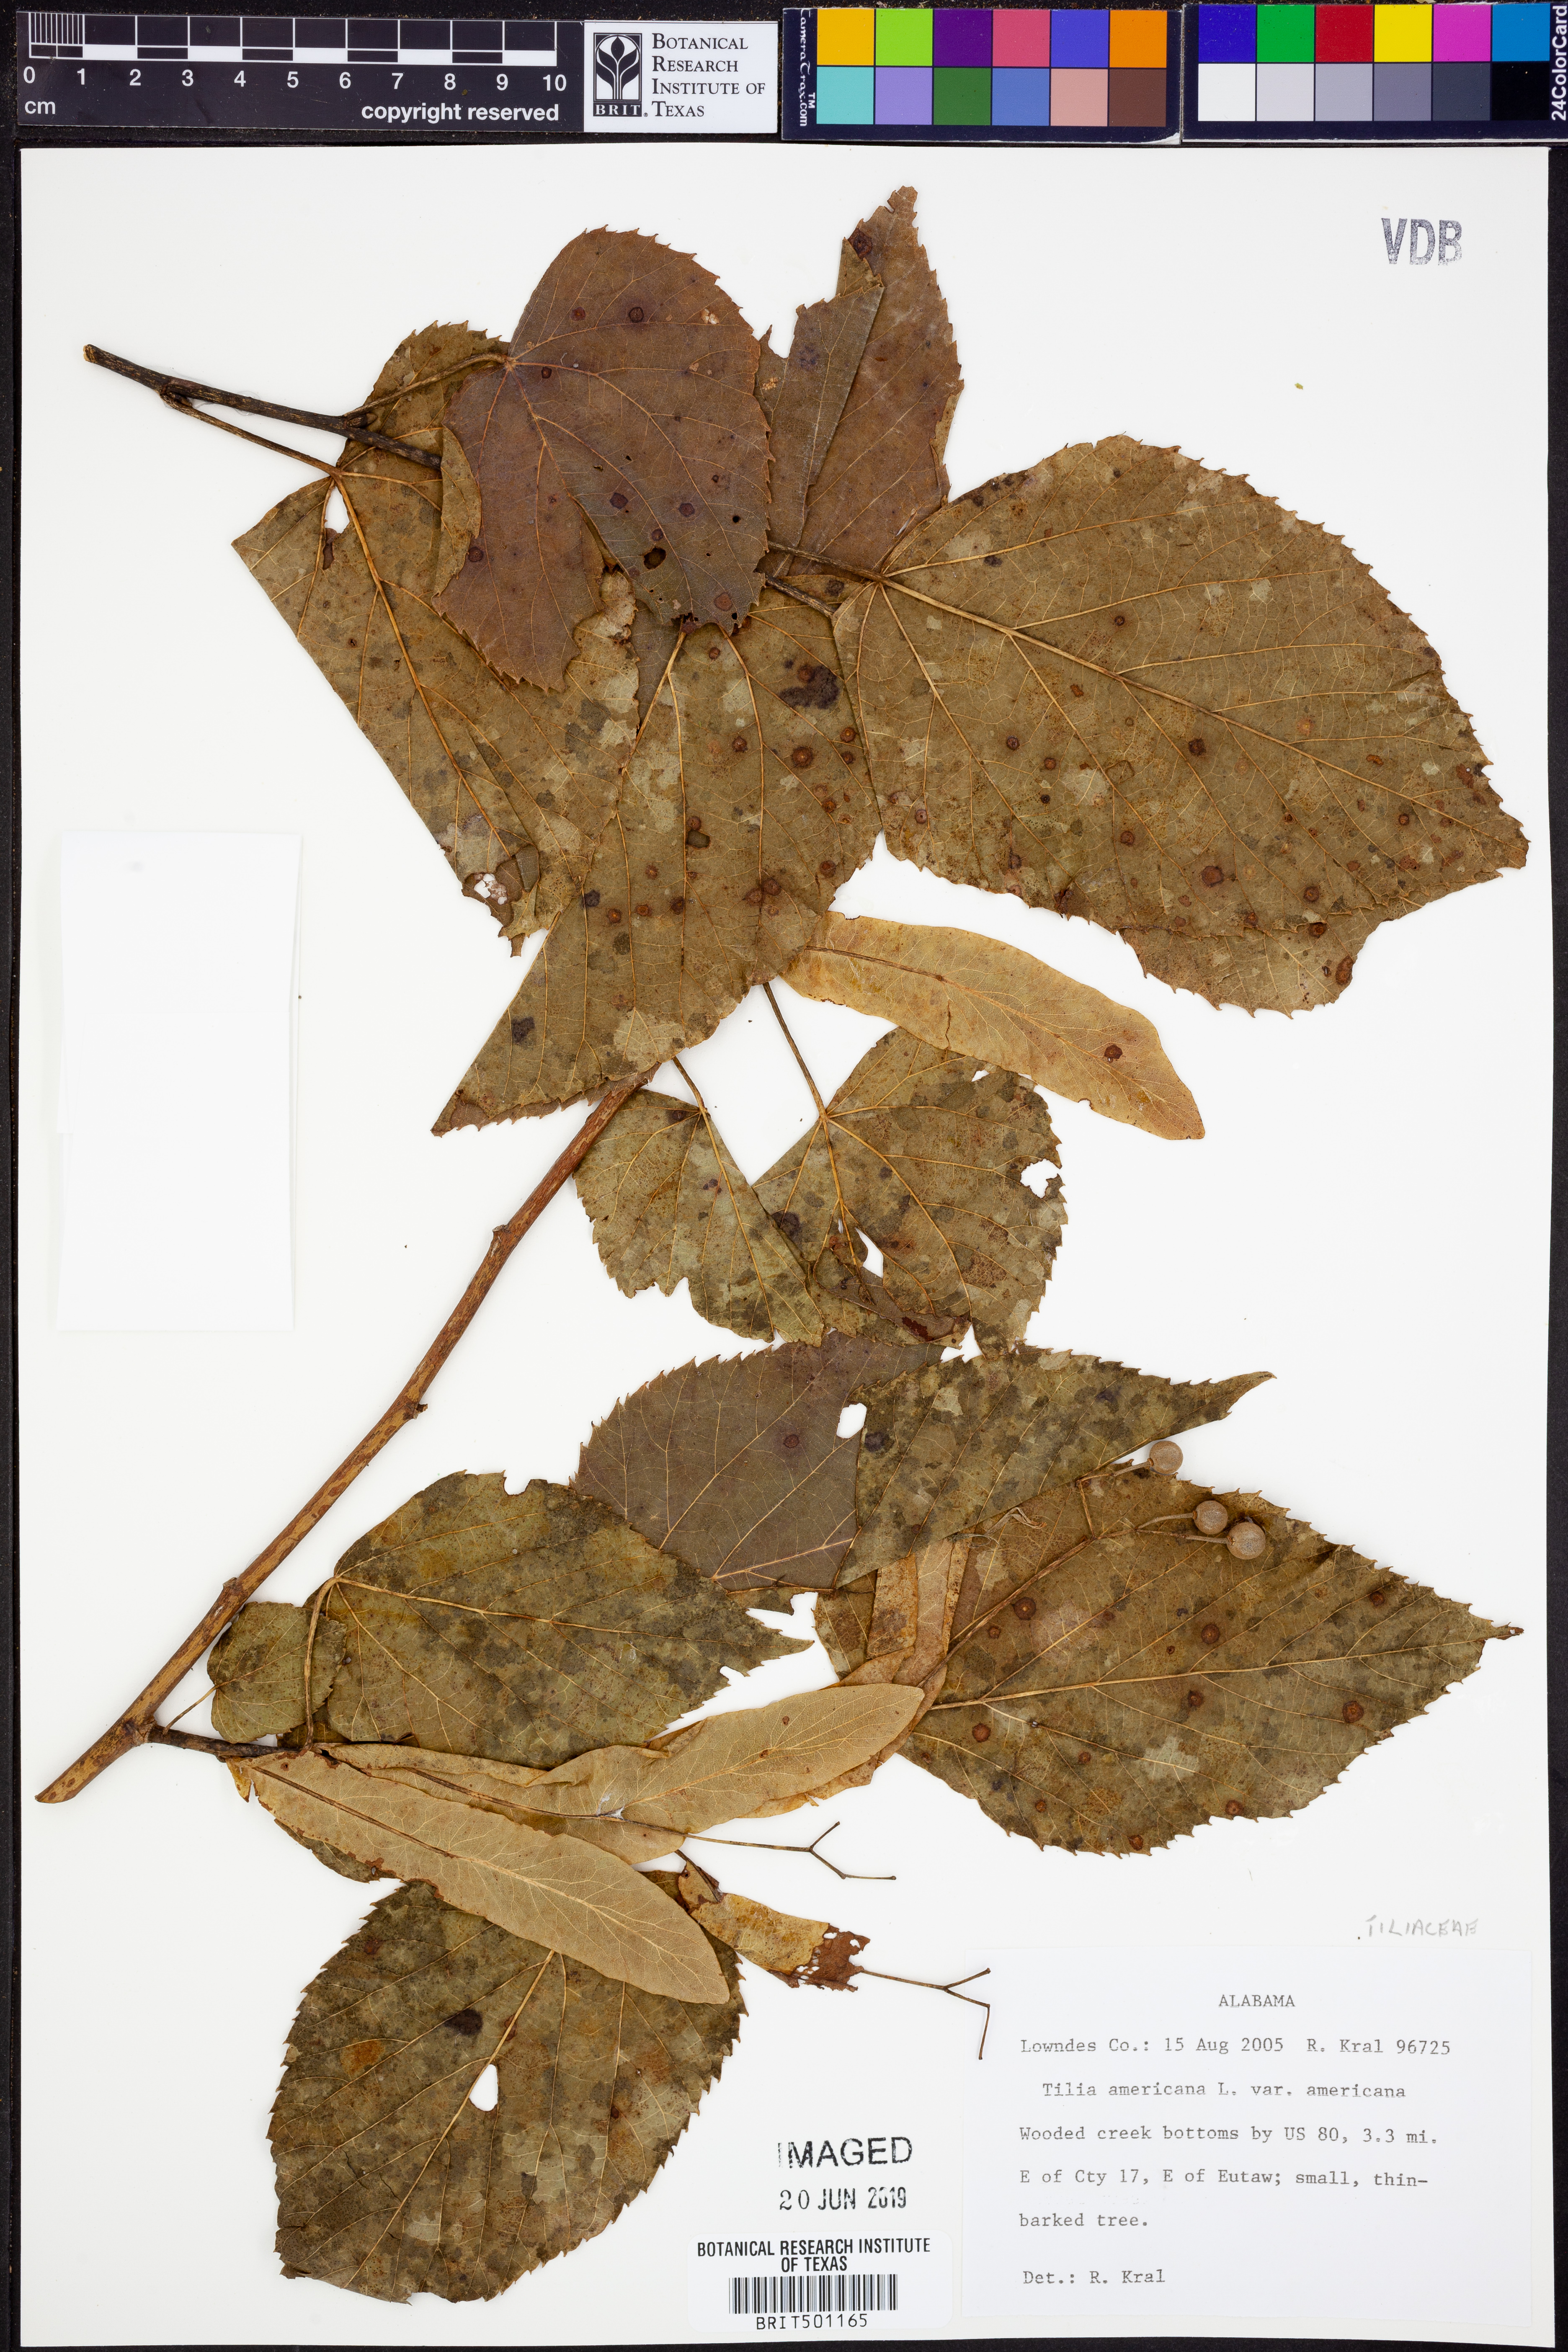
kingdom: Plantae
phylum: Tracheophyta
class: Magnoliopsida
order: Malvales
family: Malvaceae
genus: Tilia
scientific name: Tilia americana
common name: Basswood
